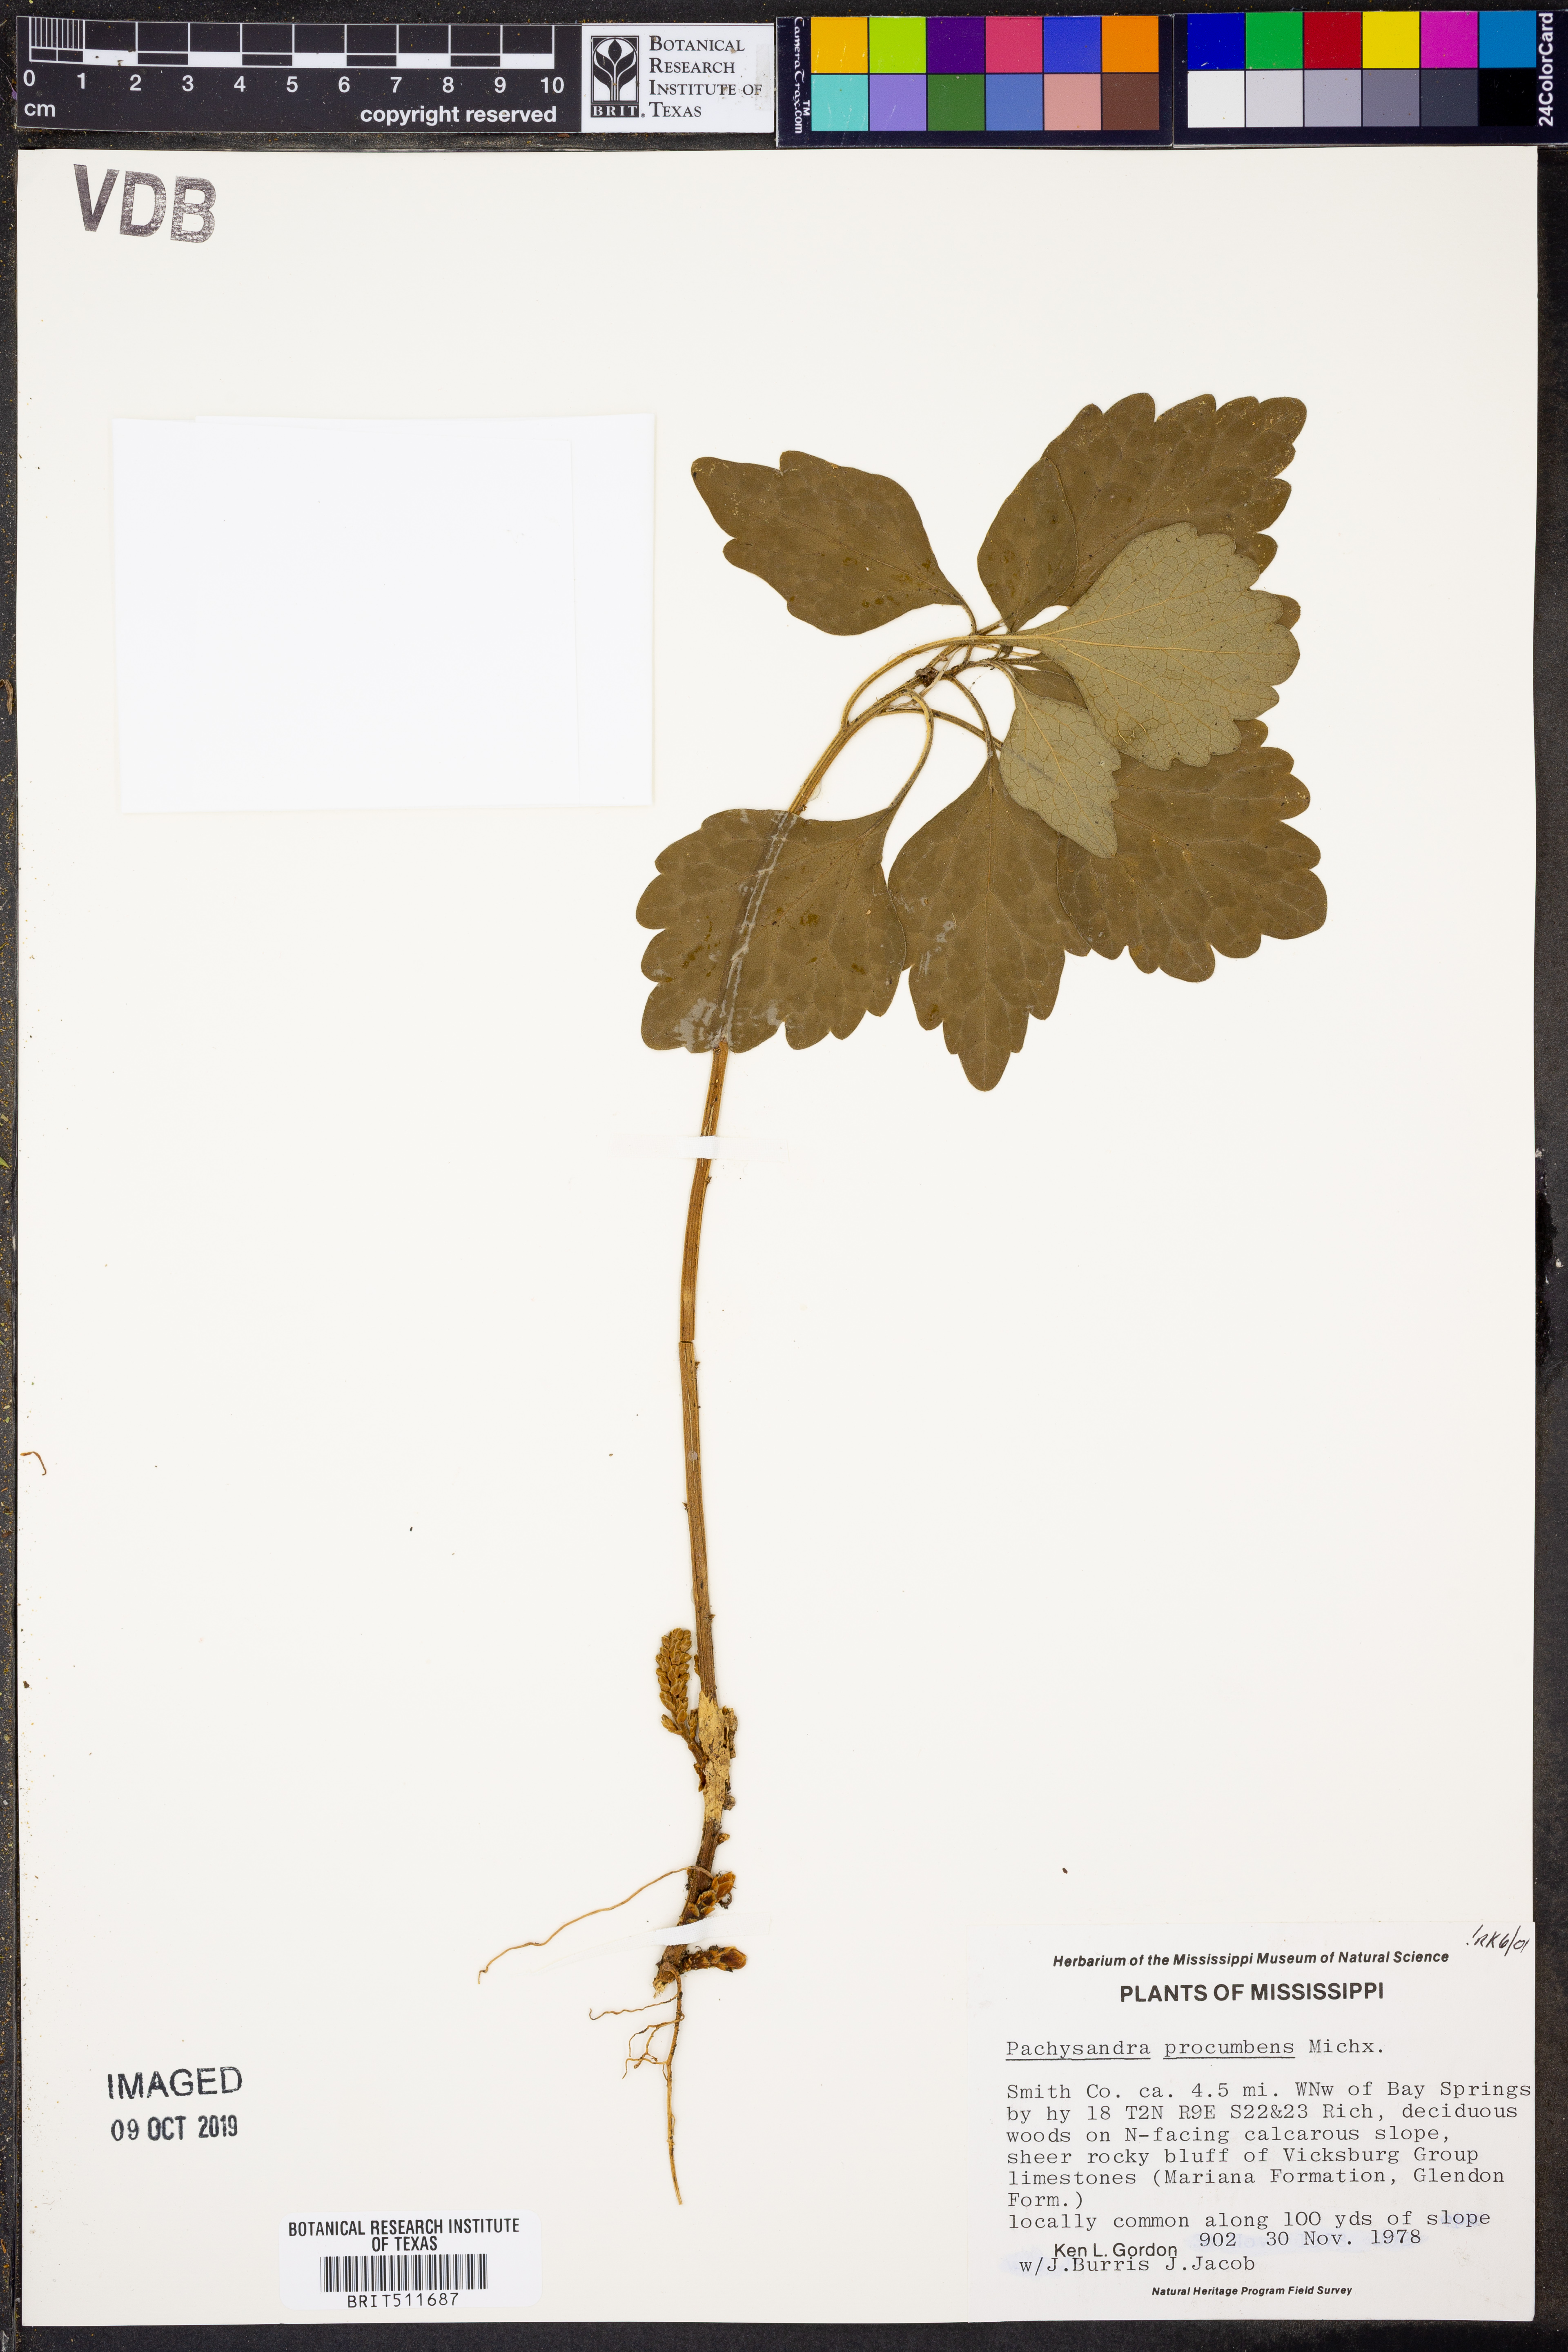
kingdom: Plantae
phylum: Tracheophyta
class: Magnoliopsida
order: Buxales
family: Buxaceae
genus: Pachysandra
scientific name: Pachysandra procumbens
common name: Mountain-spurge
